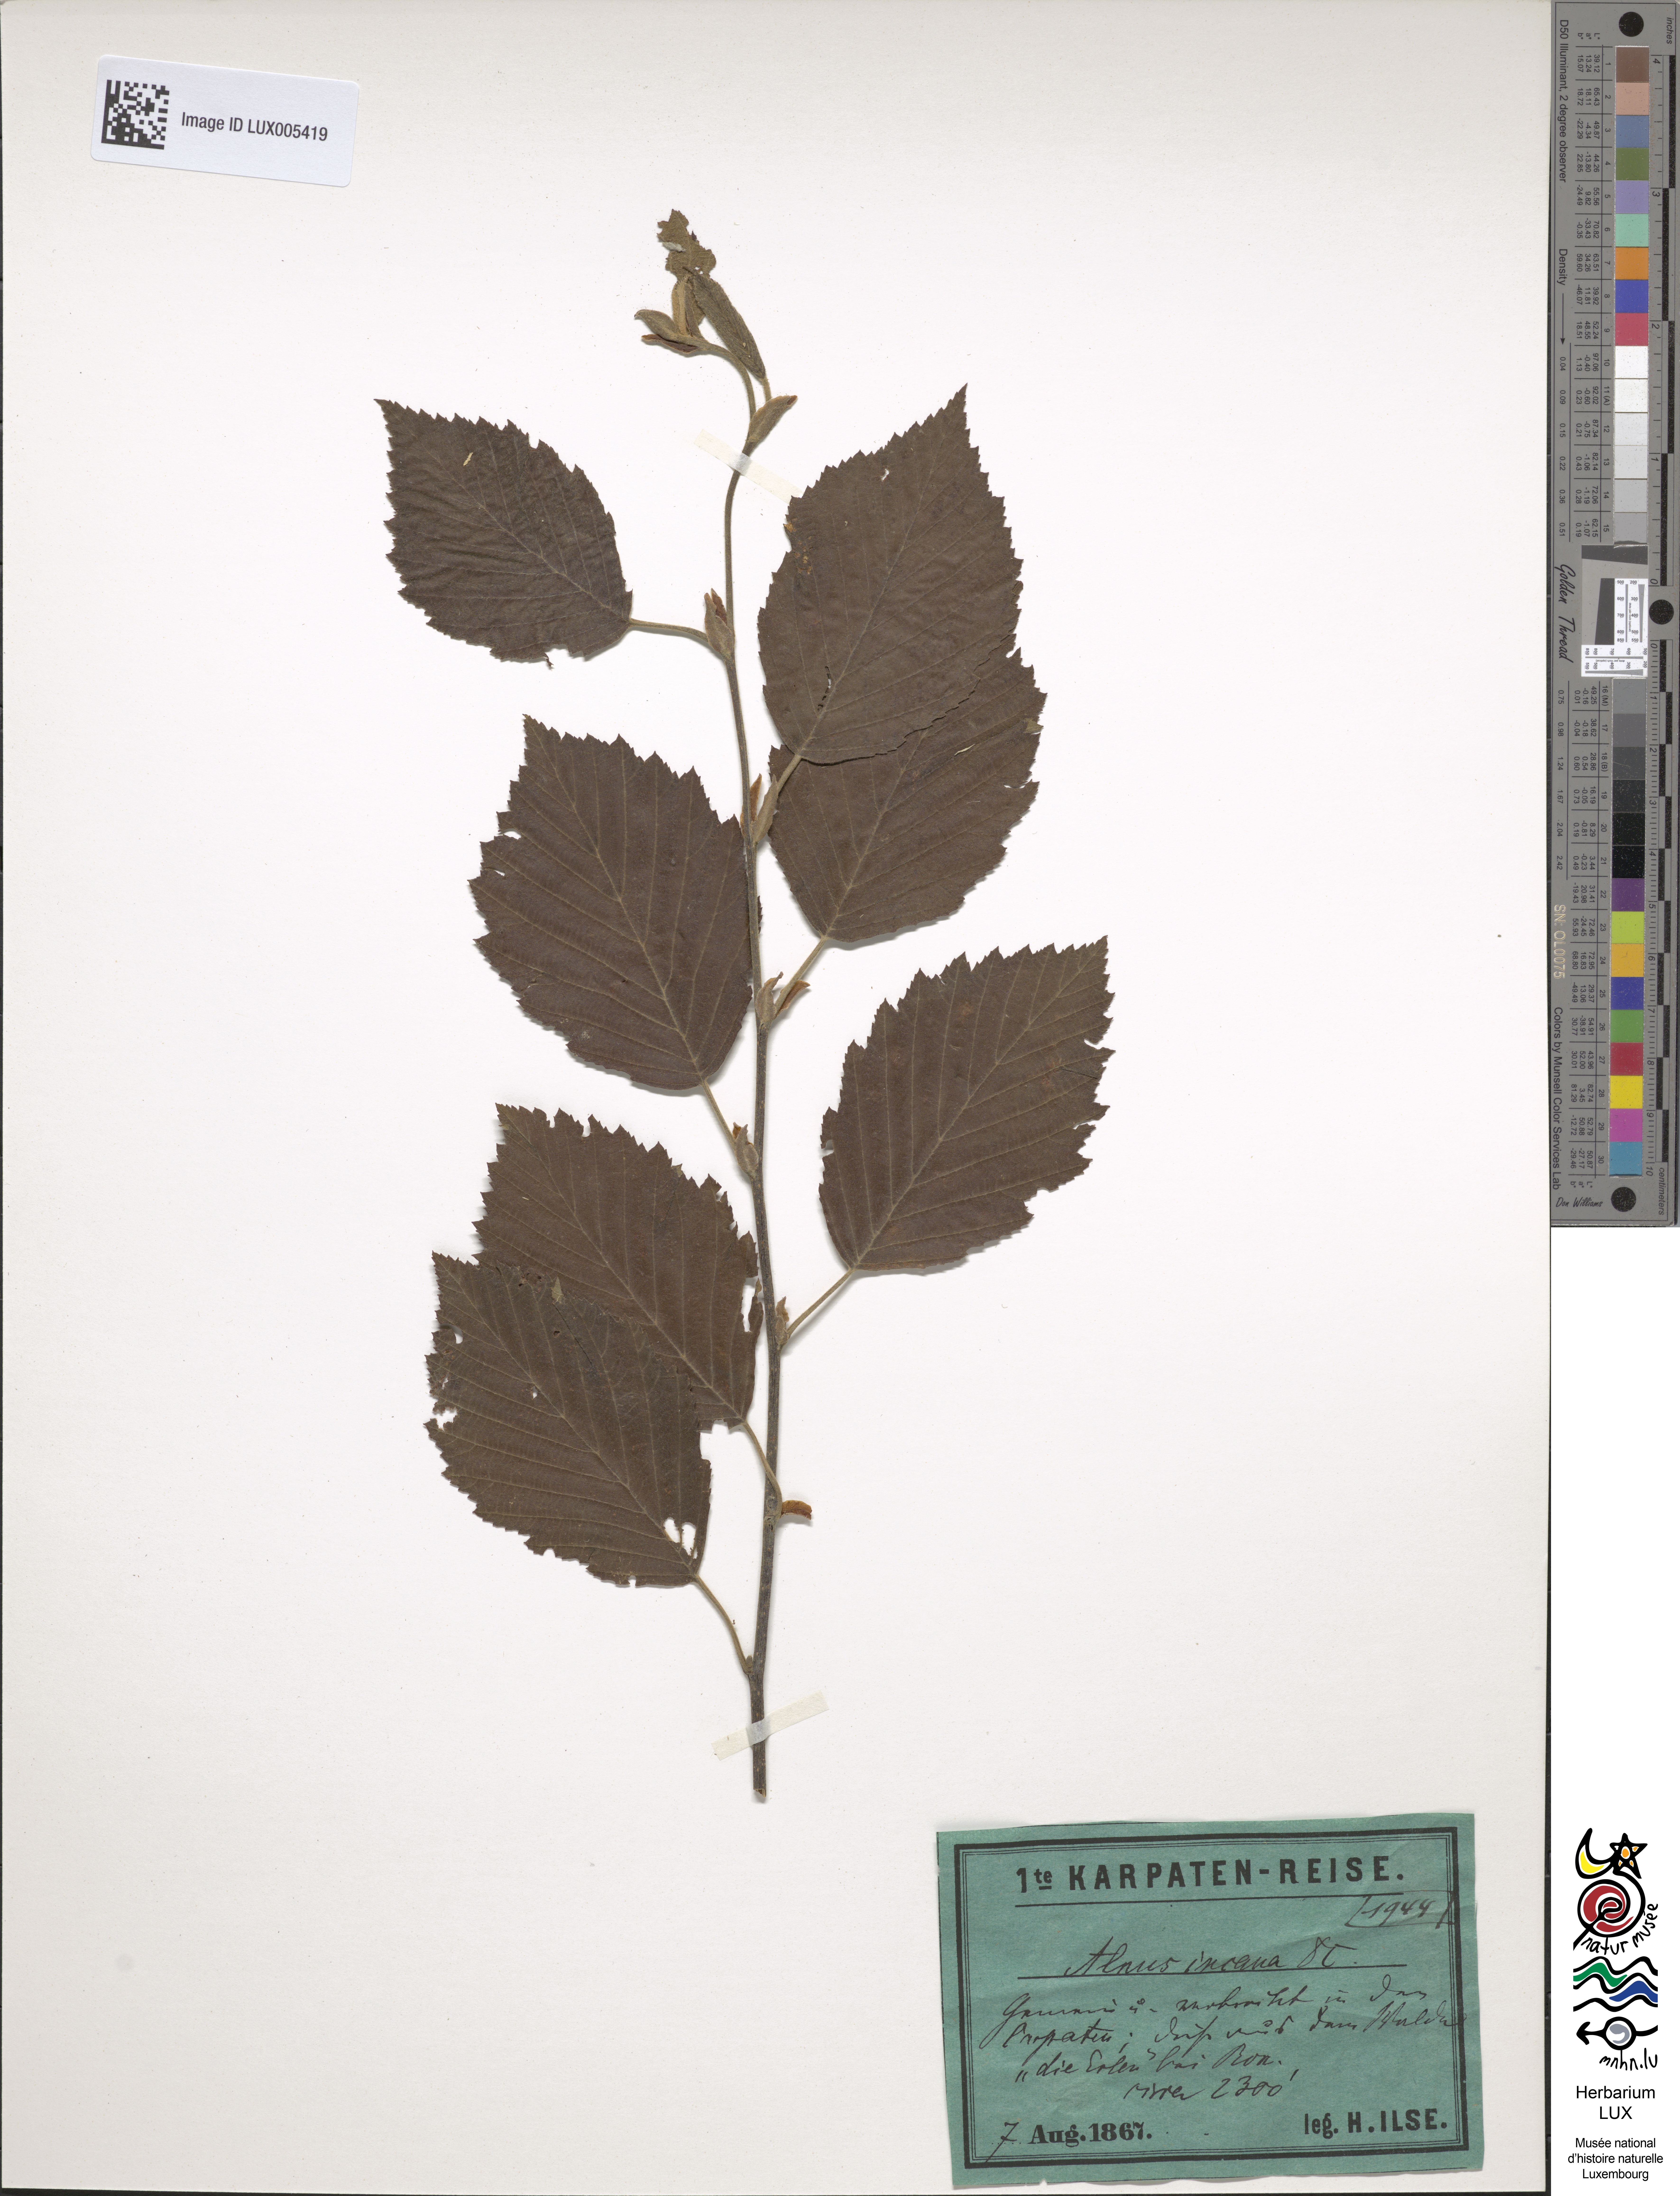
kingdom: Plantae
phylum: Tracheophyta
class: Magnoliopsida
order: Fagales
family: Betulaceae
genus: Alnus
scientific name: Alnus incana
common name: Grey alder
